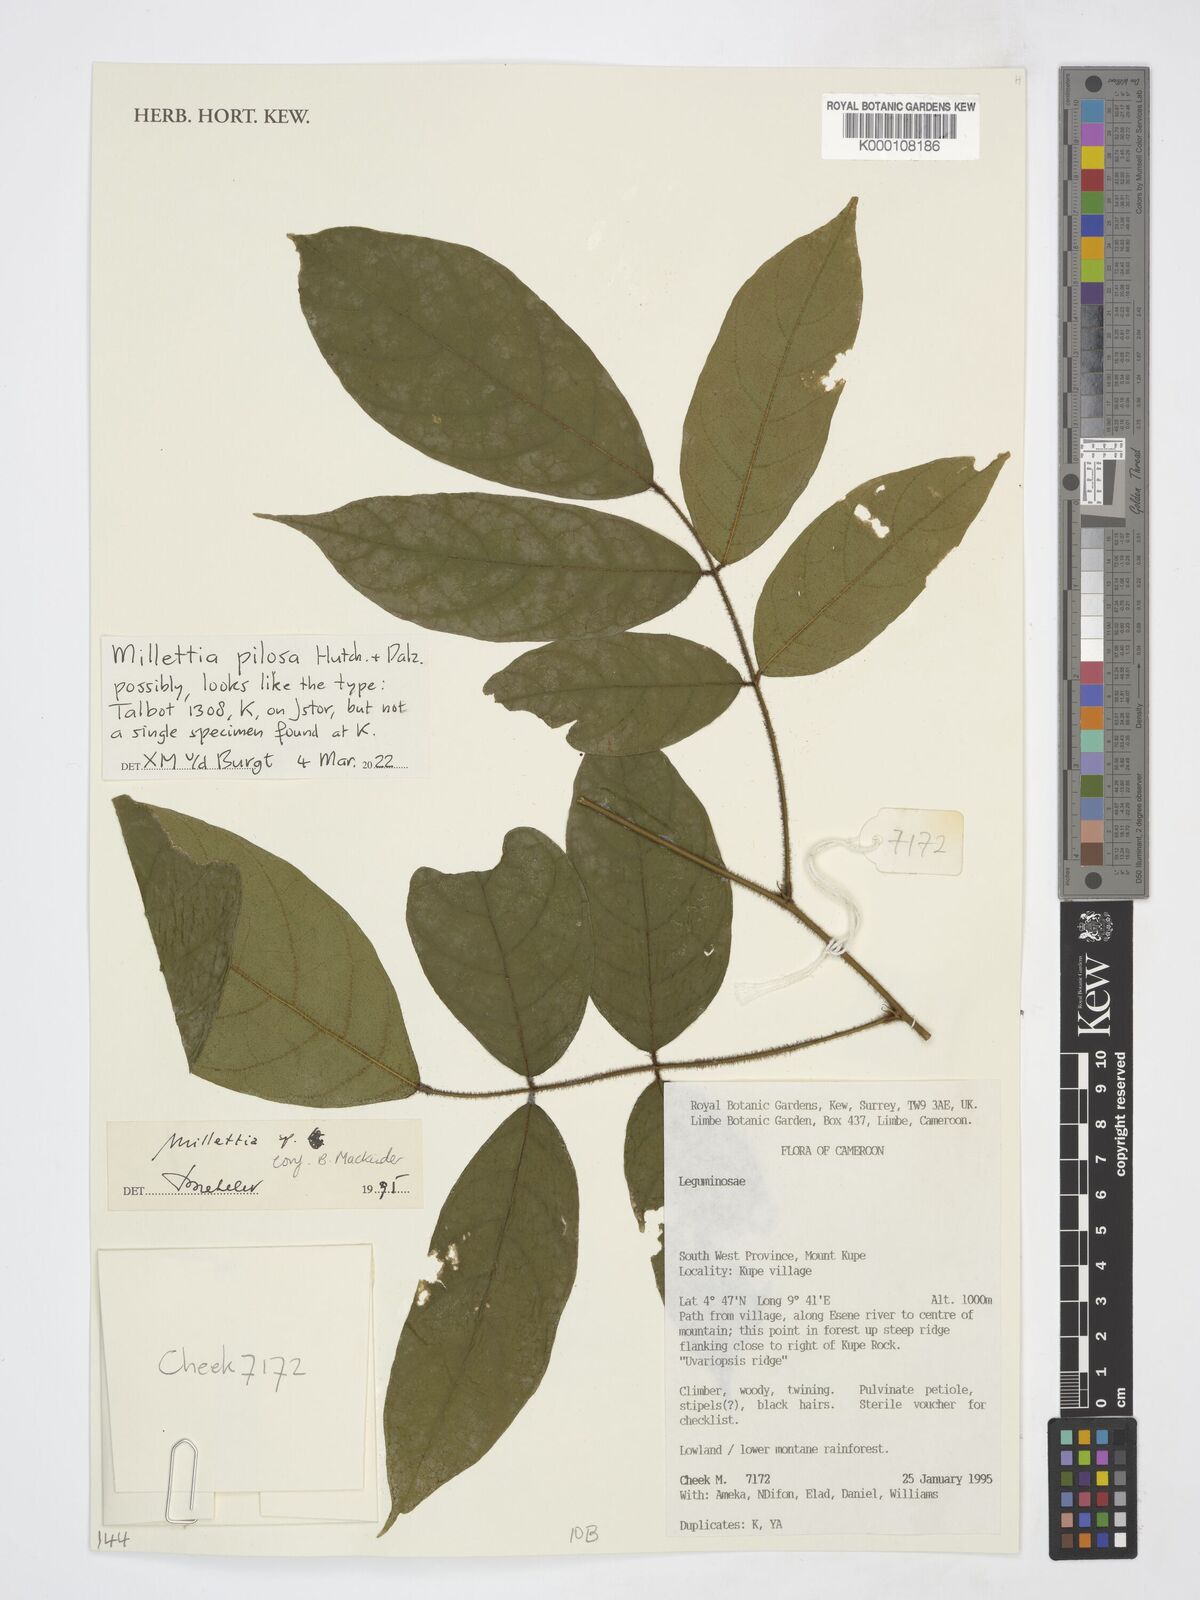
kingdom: Plantae
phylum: Tracheophyta
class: Magnoliopsida
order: Fabales
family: Fabaceae
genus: Millettia
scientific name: Millettia
